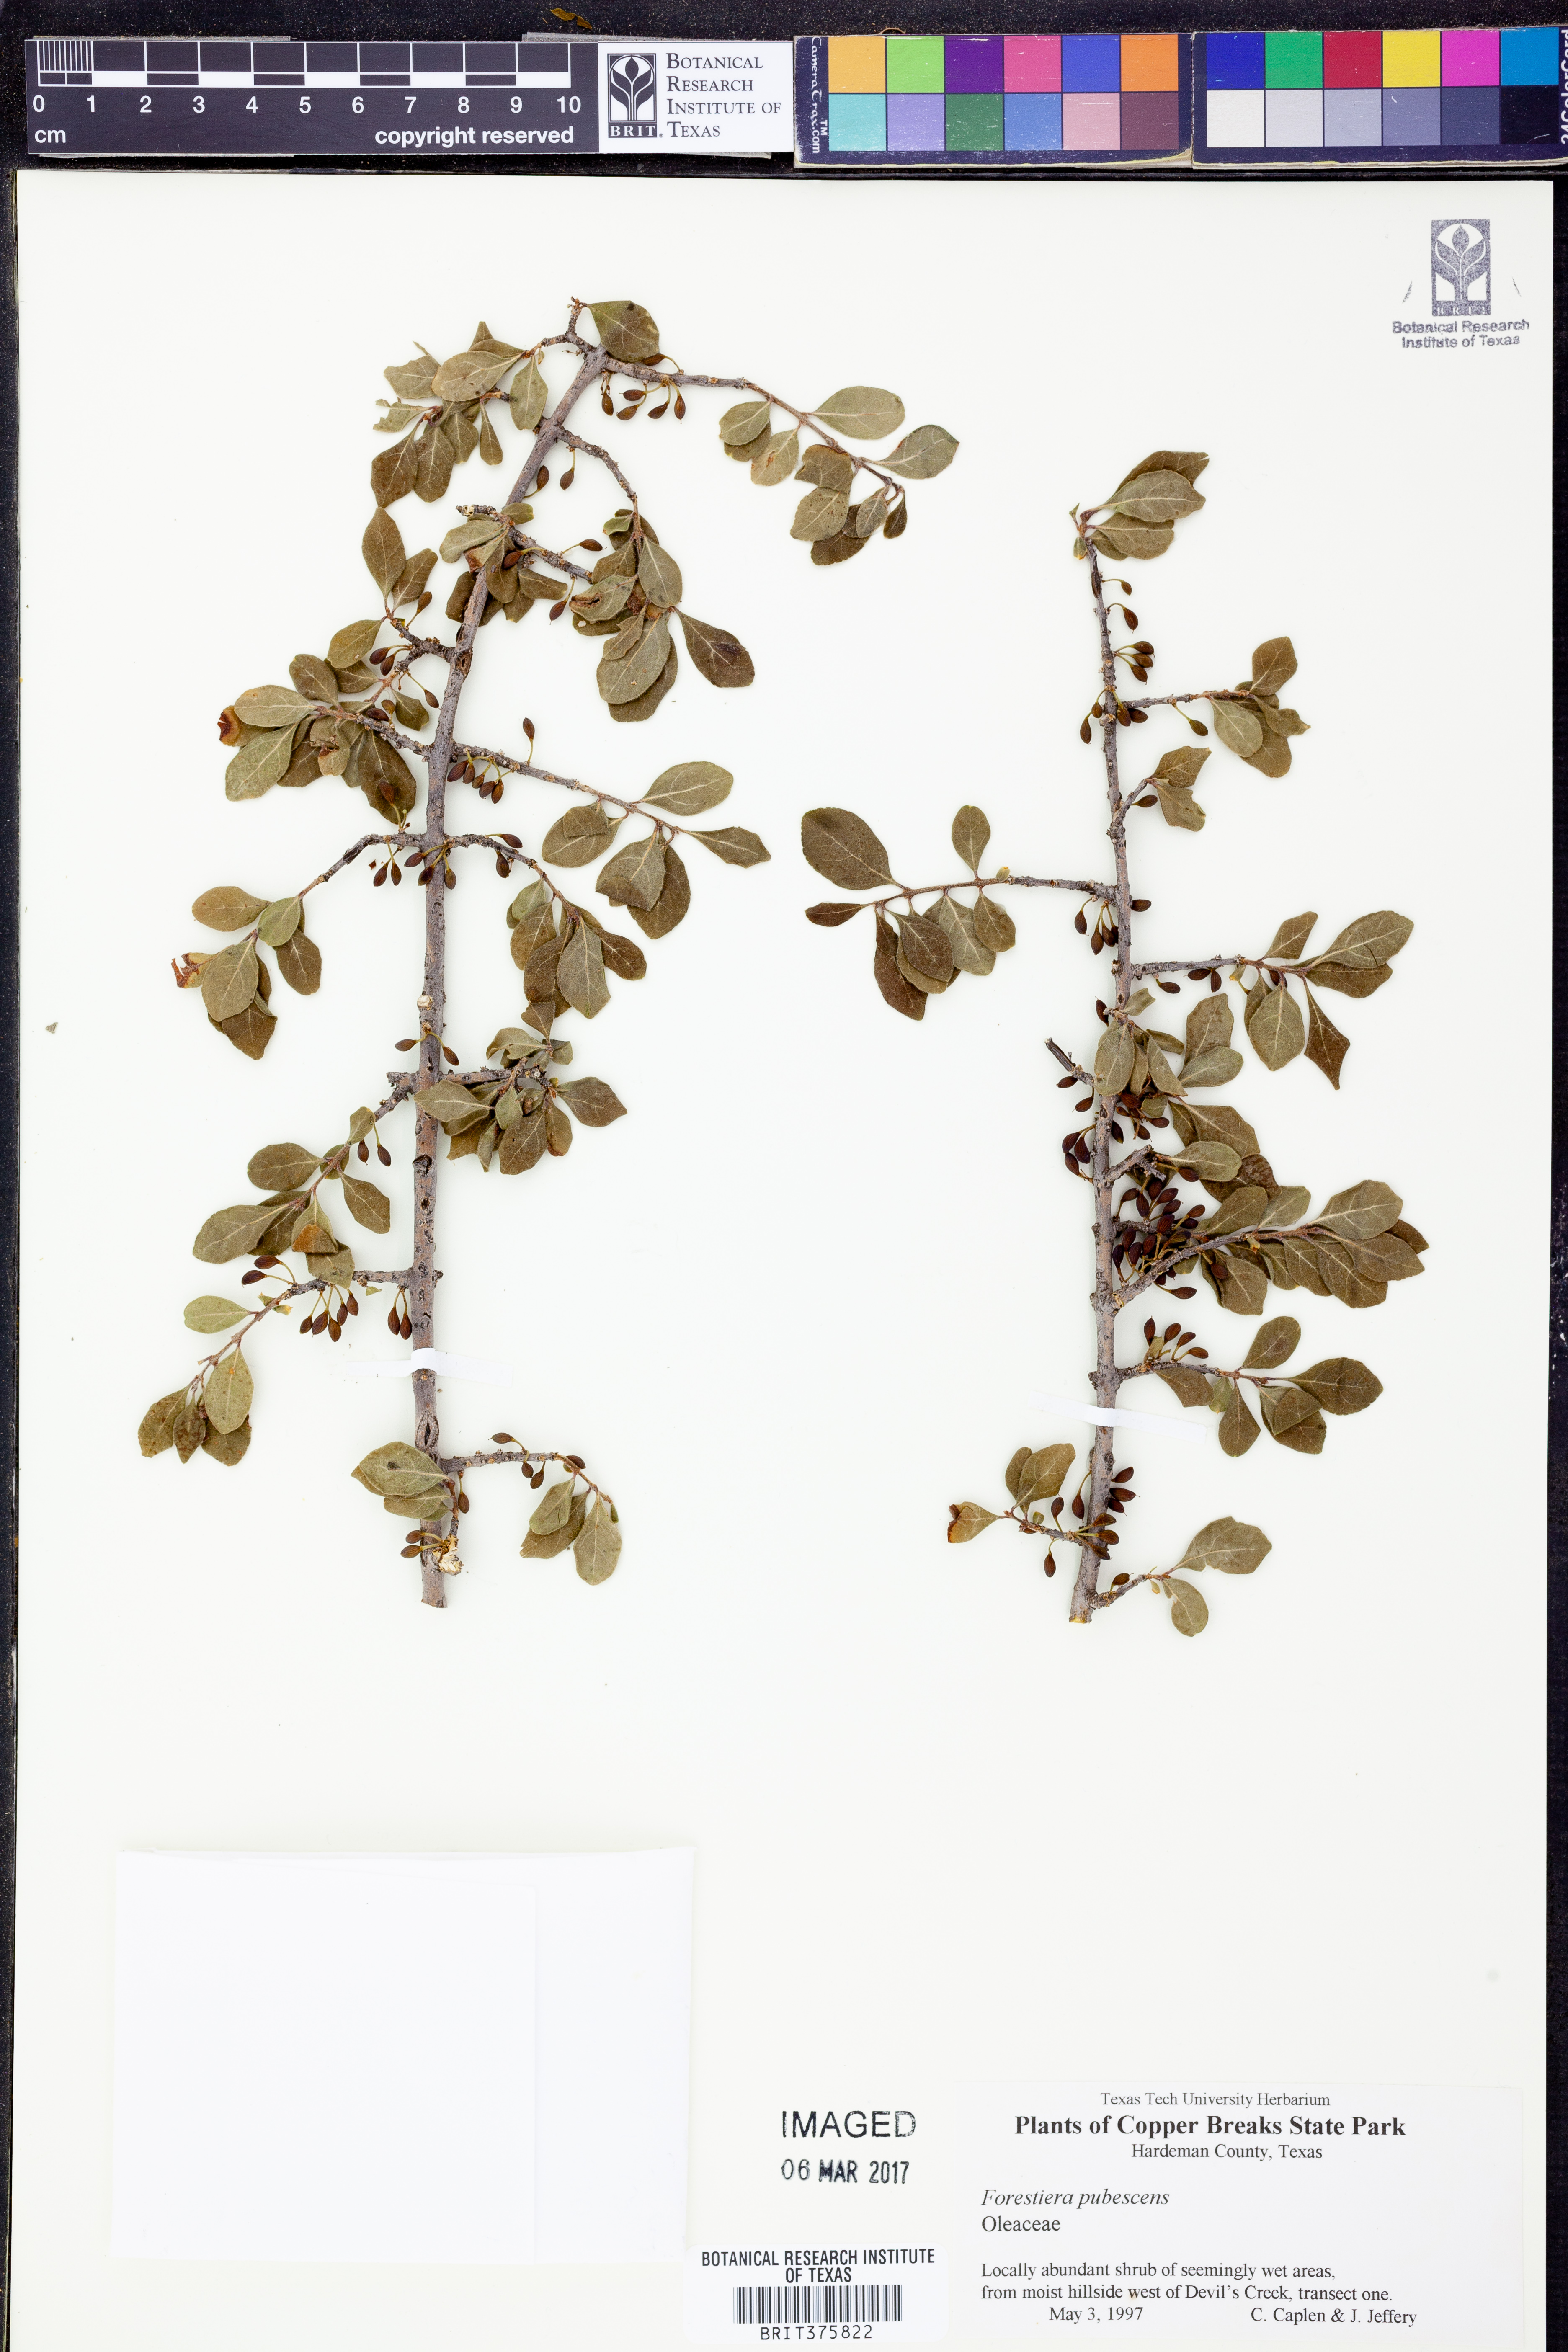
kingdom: Plantae
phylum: Tracheophyta
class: Magnoliopsida
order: Lamiales
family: Oleaceae
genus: Forestiera
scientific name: Forestiera pubescens
